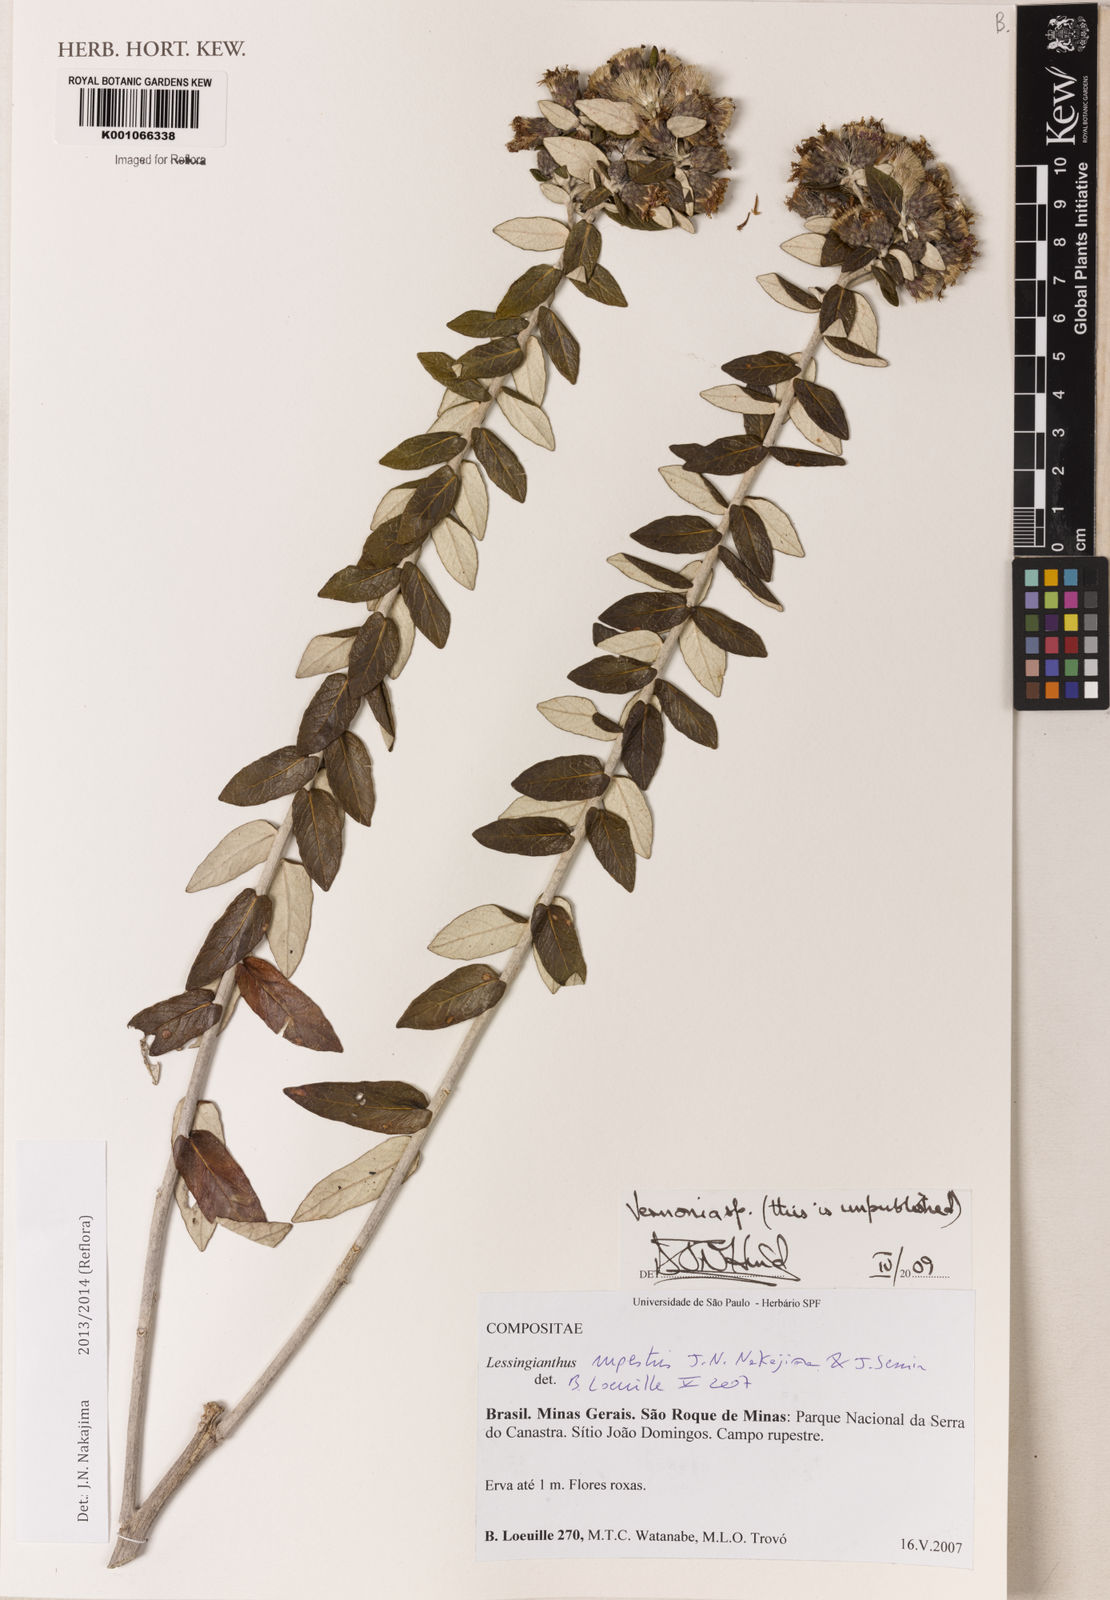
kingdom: Plantae
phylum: Tracheophyta
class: Magnoliopsida
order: Asterales
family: Asteraceae
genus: Vernonia
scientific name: Vernonia
